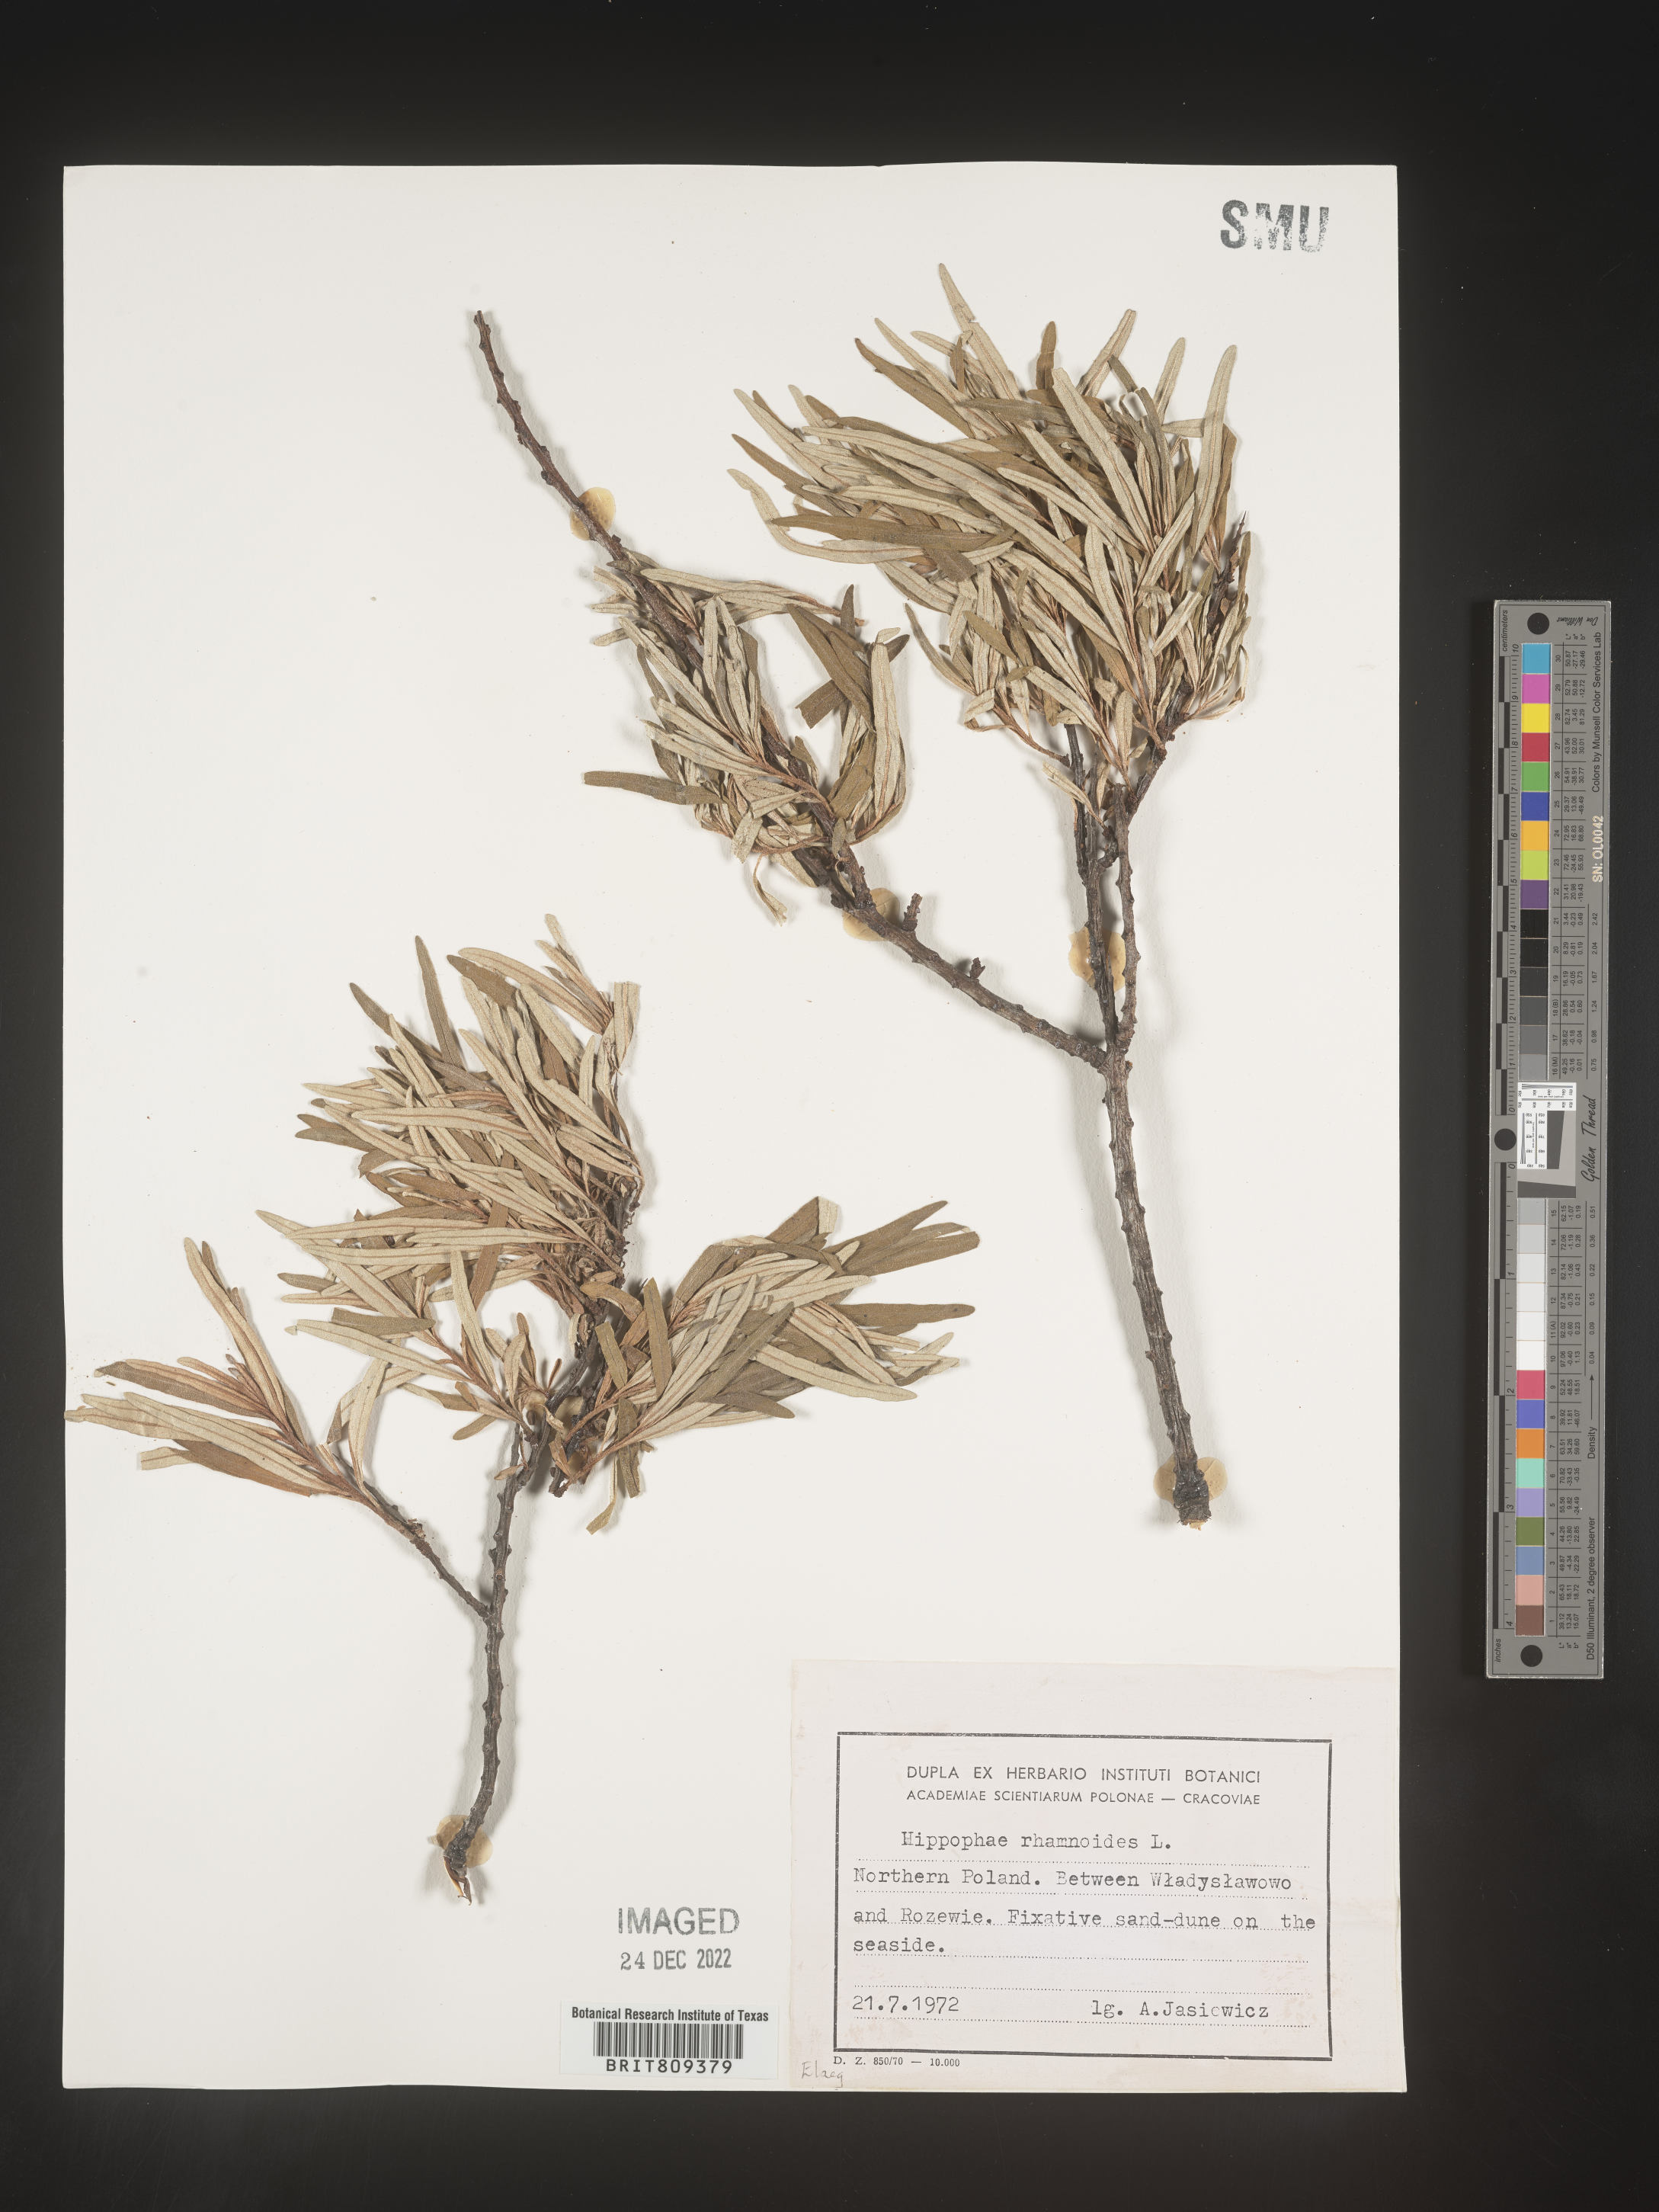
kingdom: Plantae
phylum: Tracheophyta
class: Magnoliopsida
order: Rosales
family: Elaeagnaceae
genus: Hippophae
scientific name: Hippophae
